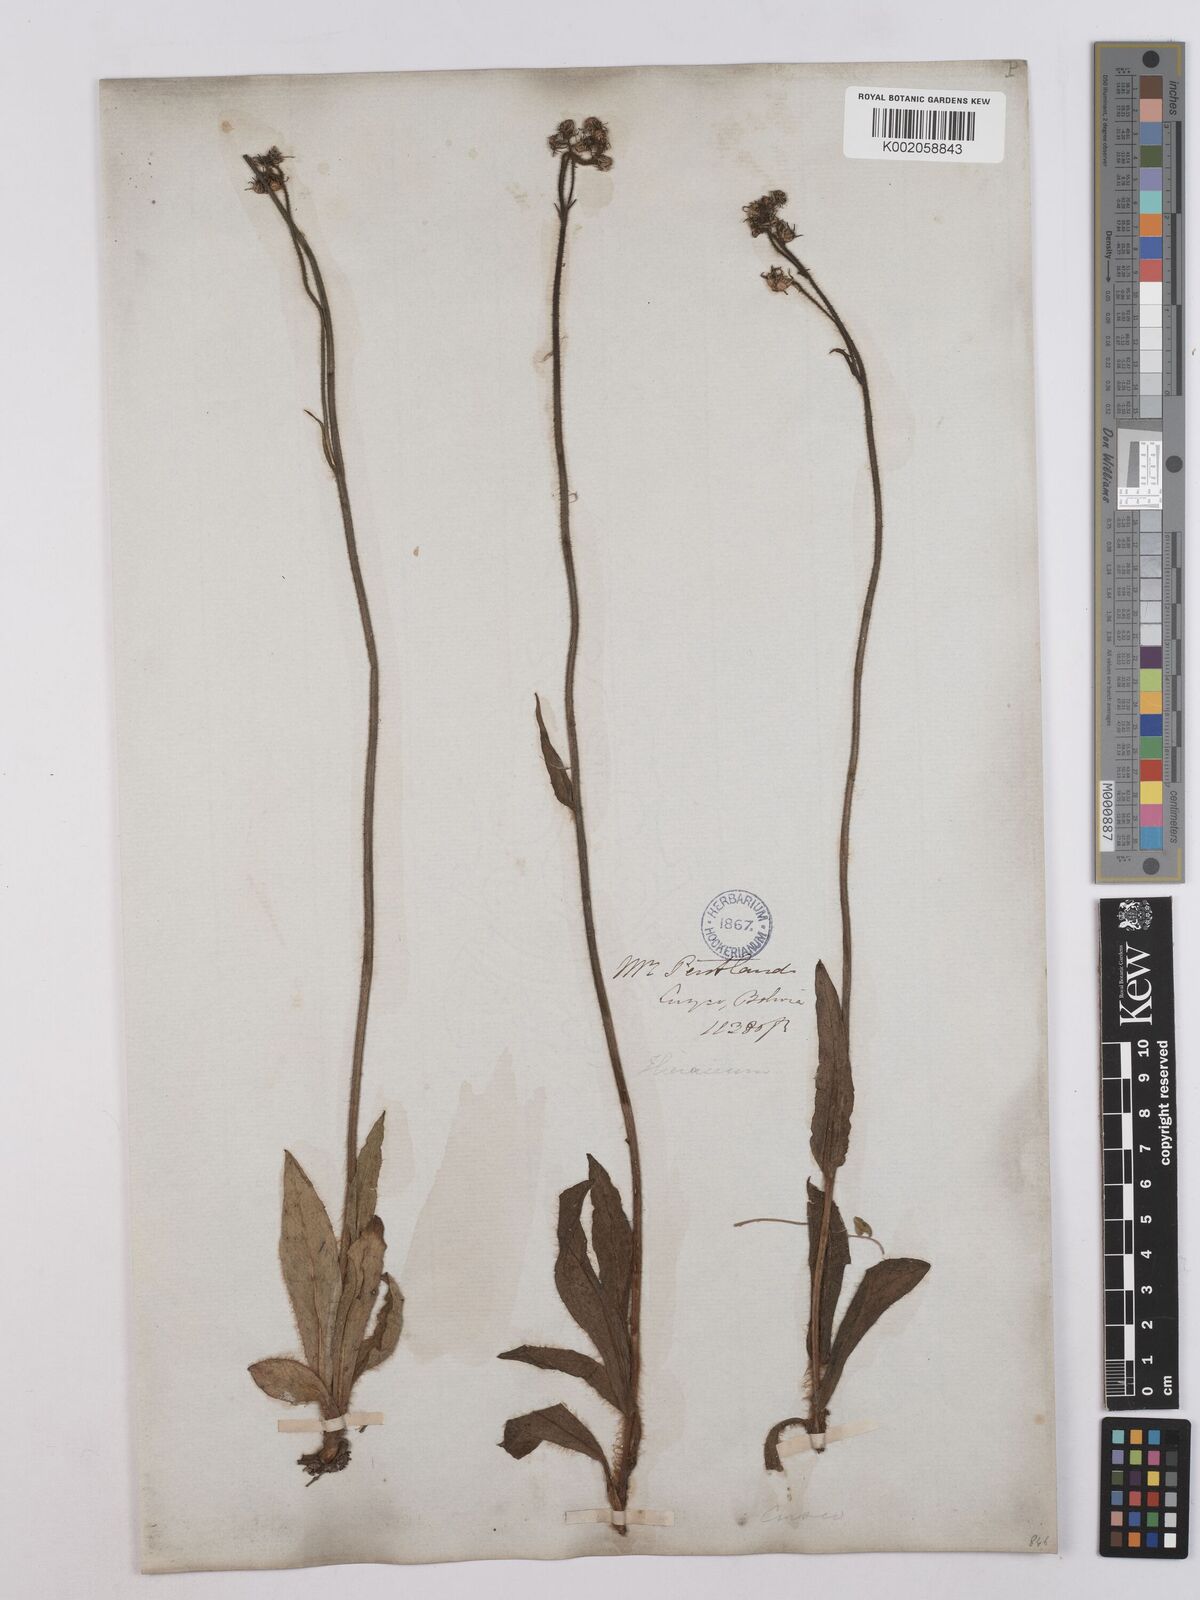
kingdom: Plantae
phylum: Tracheophyta
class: Magnoliopsida
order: Asterales
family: Asteraceae
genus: Hieracium
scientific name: Hieracium avilae
